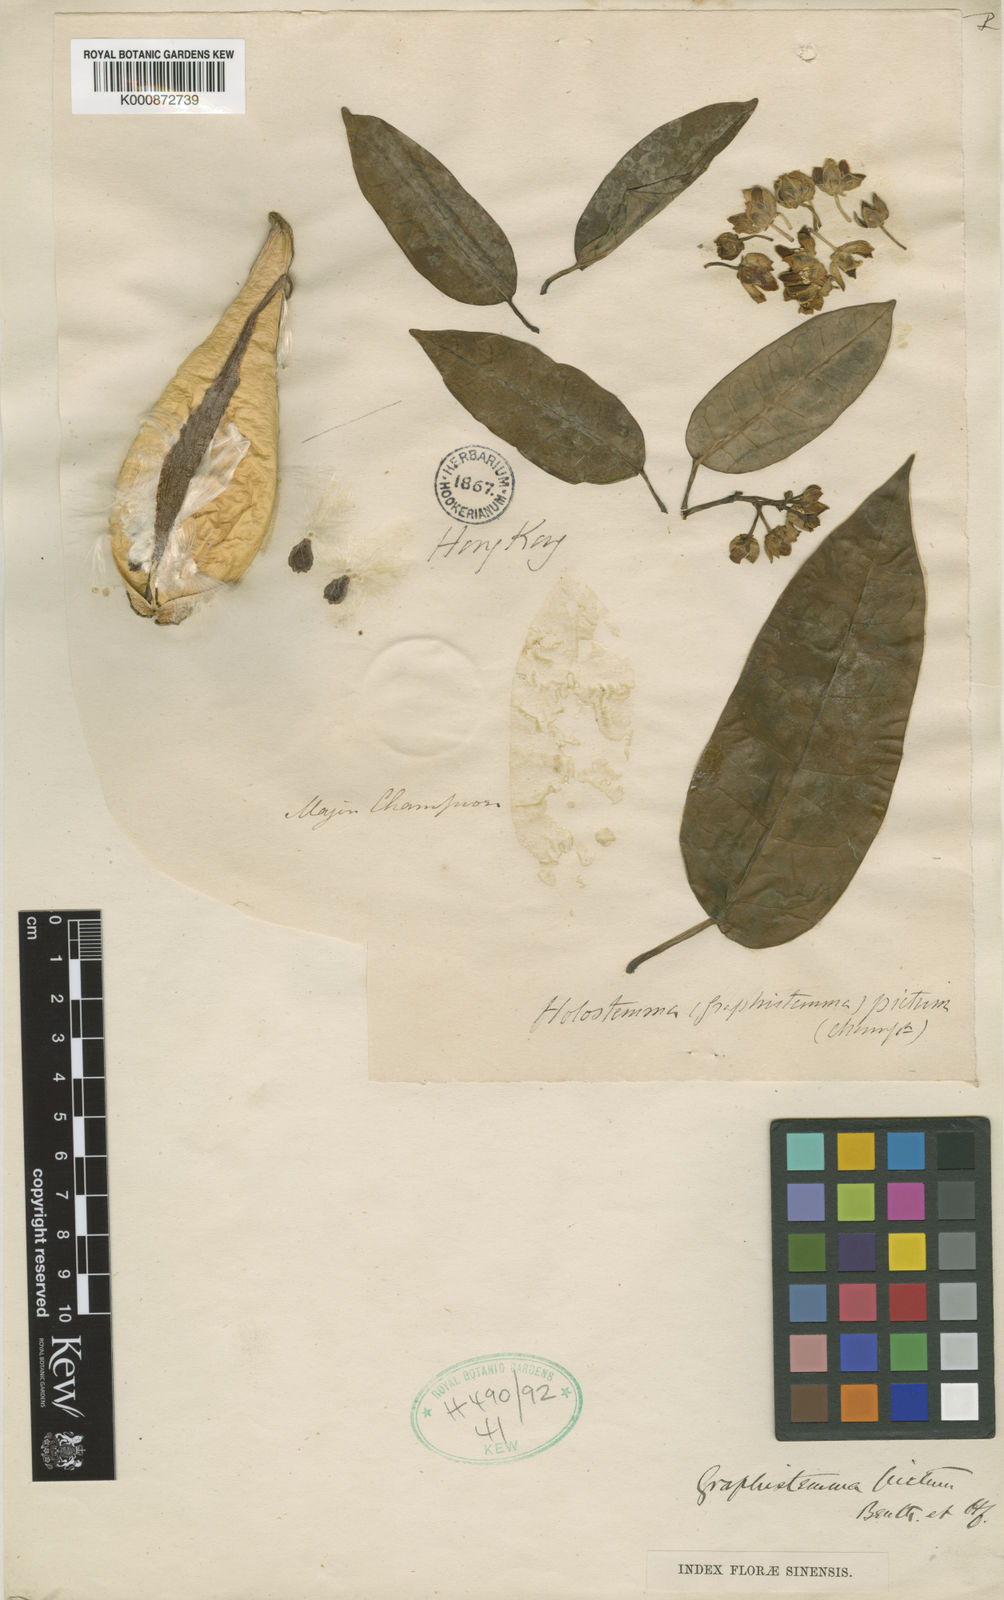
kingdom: Plantae
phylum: Tracheophyta
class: Magnoliopsida
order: Gentianales
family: Apocynaceae
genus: Cynanchum
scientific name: Cynanchum graphistemmatoides
